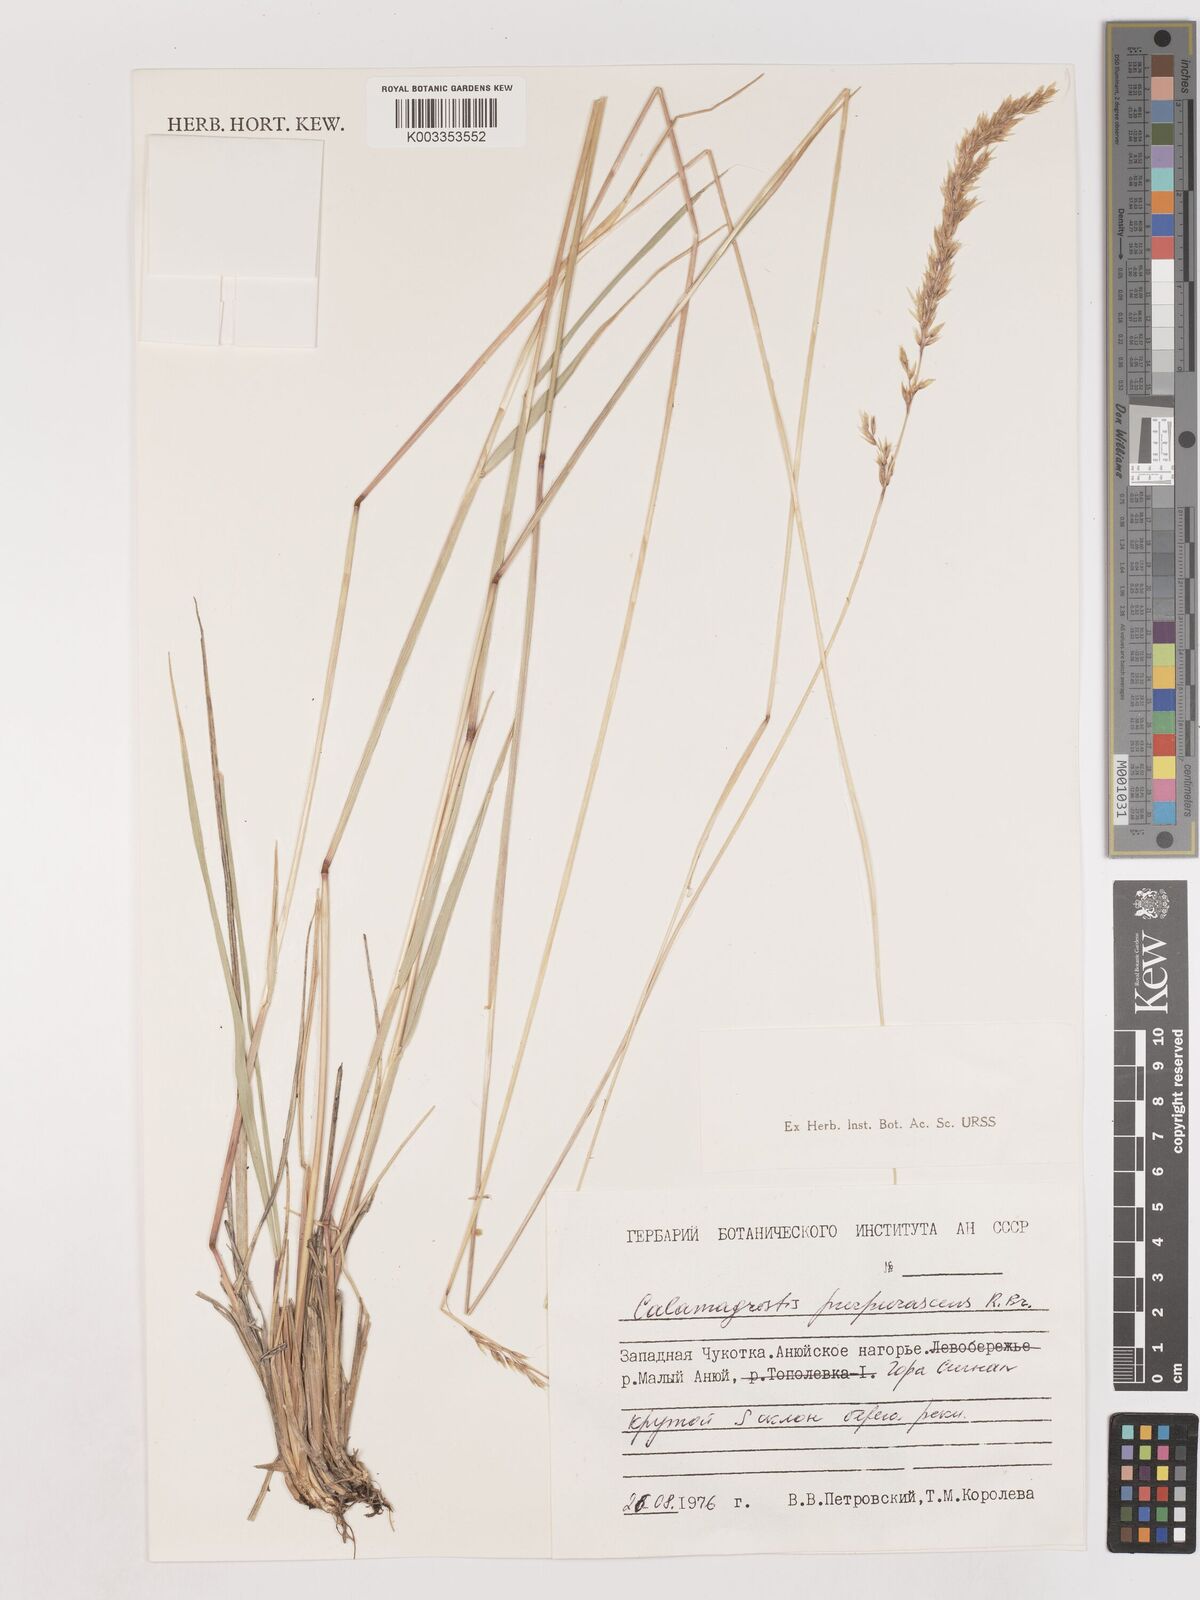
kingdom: Plantae
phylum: Tracheophyta
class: Liliopsida
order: Poales
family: Poaceae
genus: Calamagrostis
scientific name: Calamagrostis purpurascens
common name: Purple reedgrass
